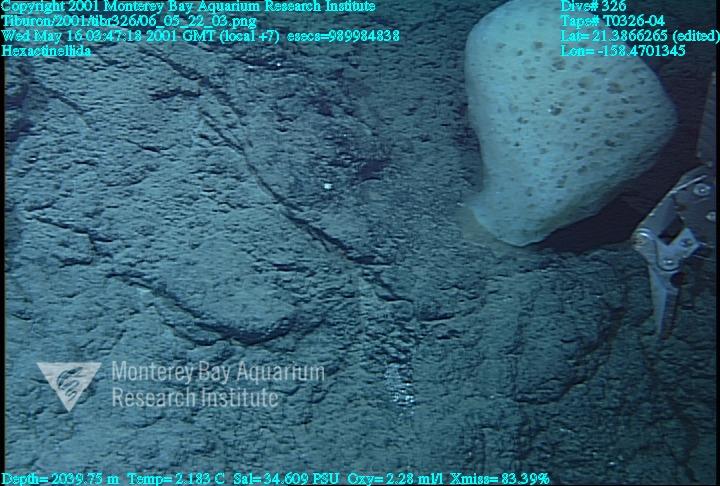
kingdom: Animalia
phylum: Porifera
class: Hexactinellida
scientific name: Hexactinellida
